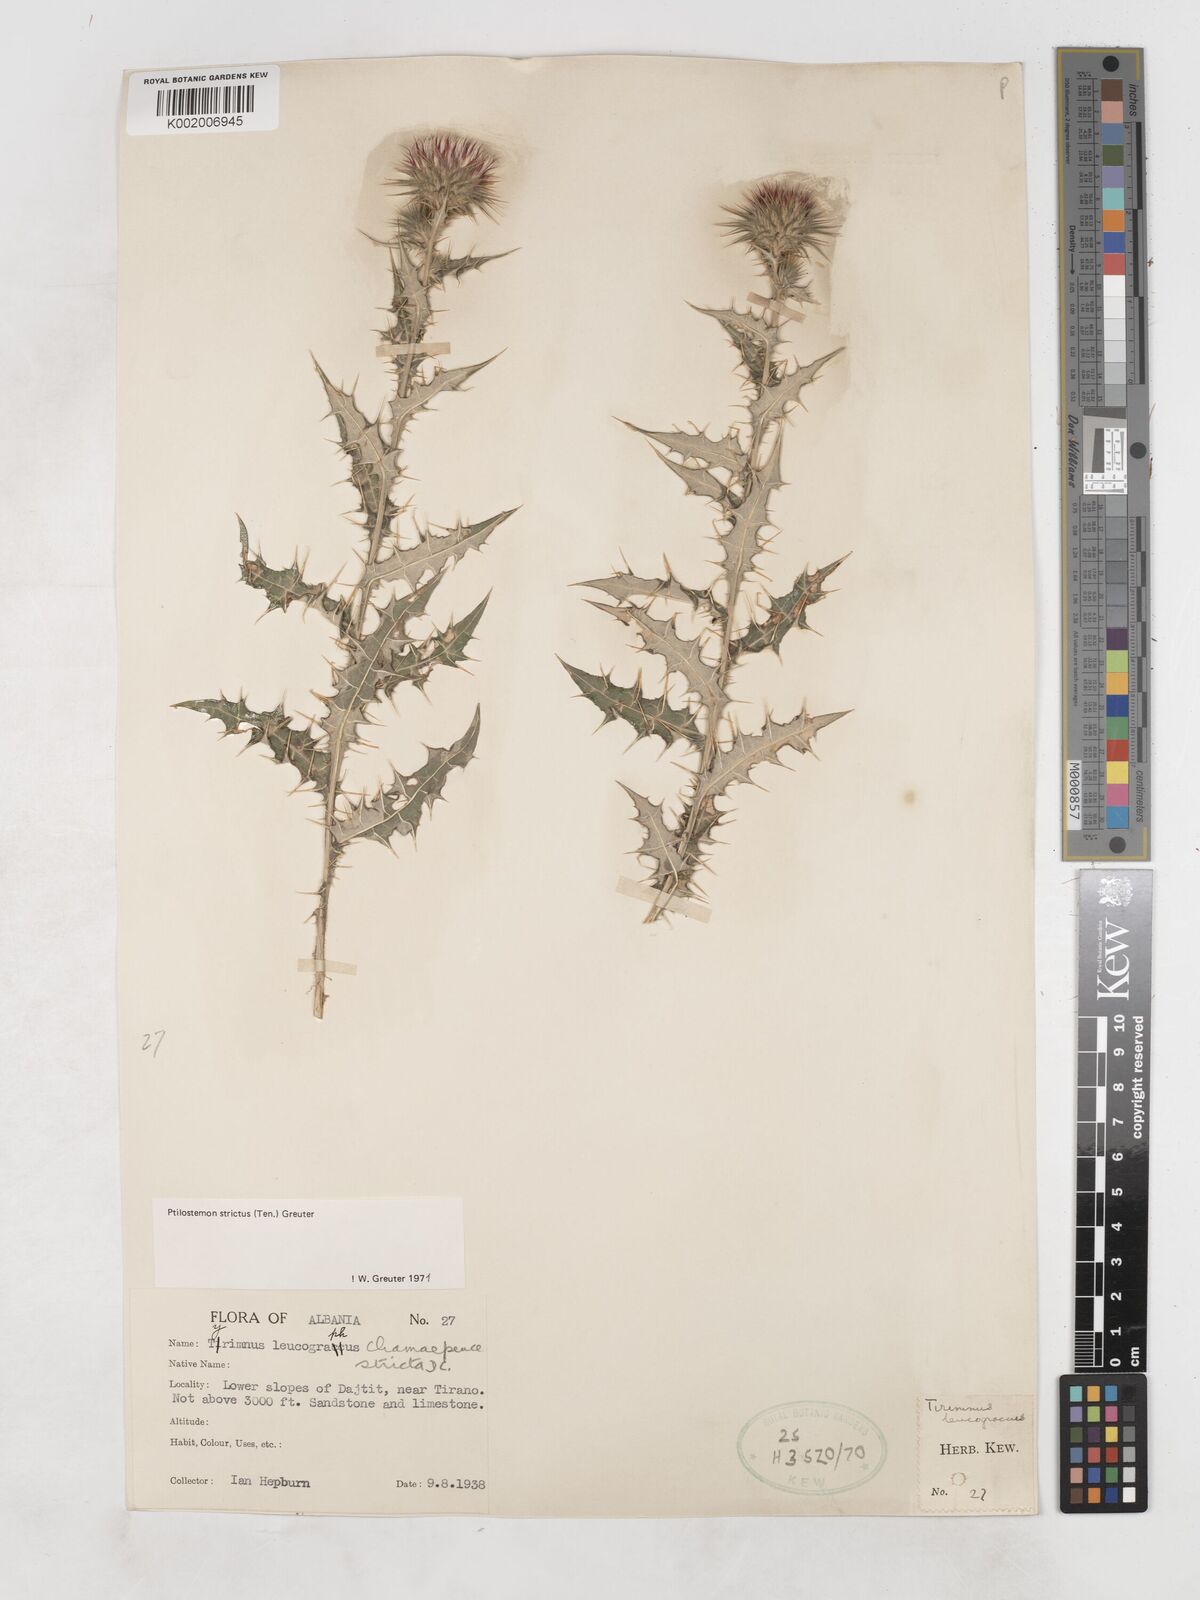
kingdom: Plantae
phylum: Tracheophyta
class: Magnoliopsida
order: Asterales
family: Asteraceae
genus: Ptilostemon
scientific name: Ptilostemon strictus
